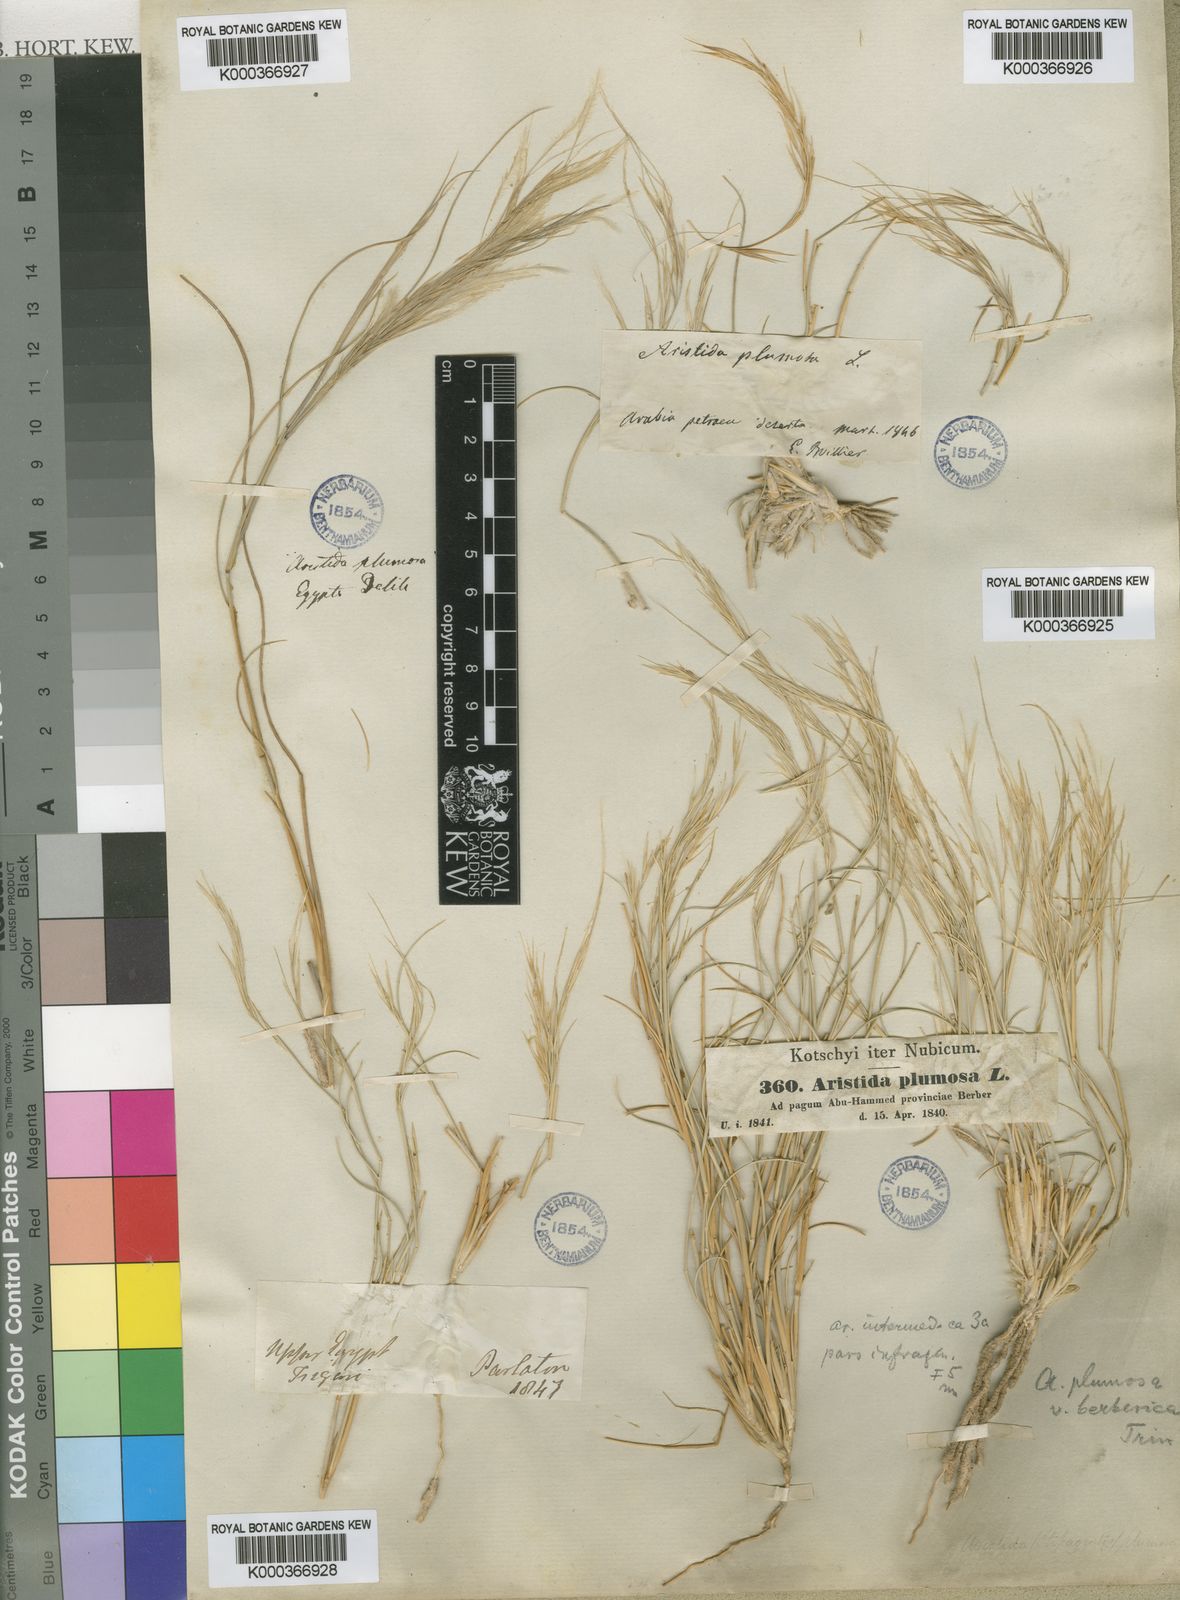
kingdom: Plantae
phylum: Tracheophyta
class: Liliopsida
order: Poales
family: Poaceae
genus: Stipagrostis
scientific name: Stipagrostis plumosa
